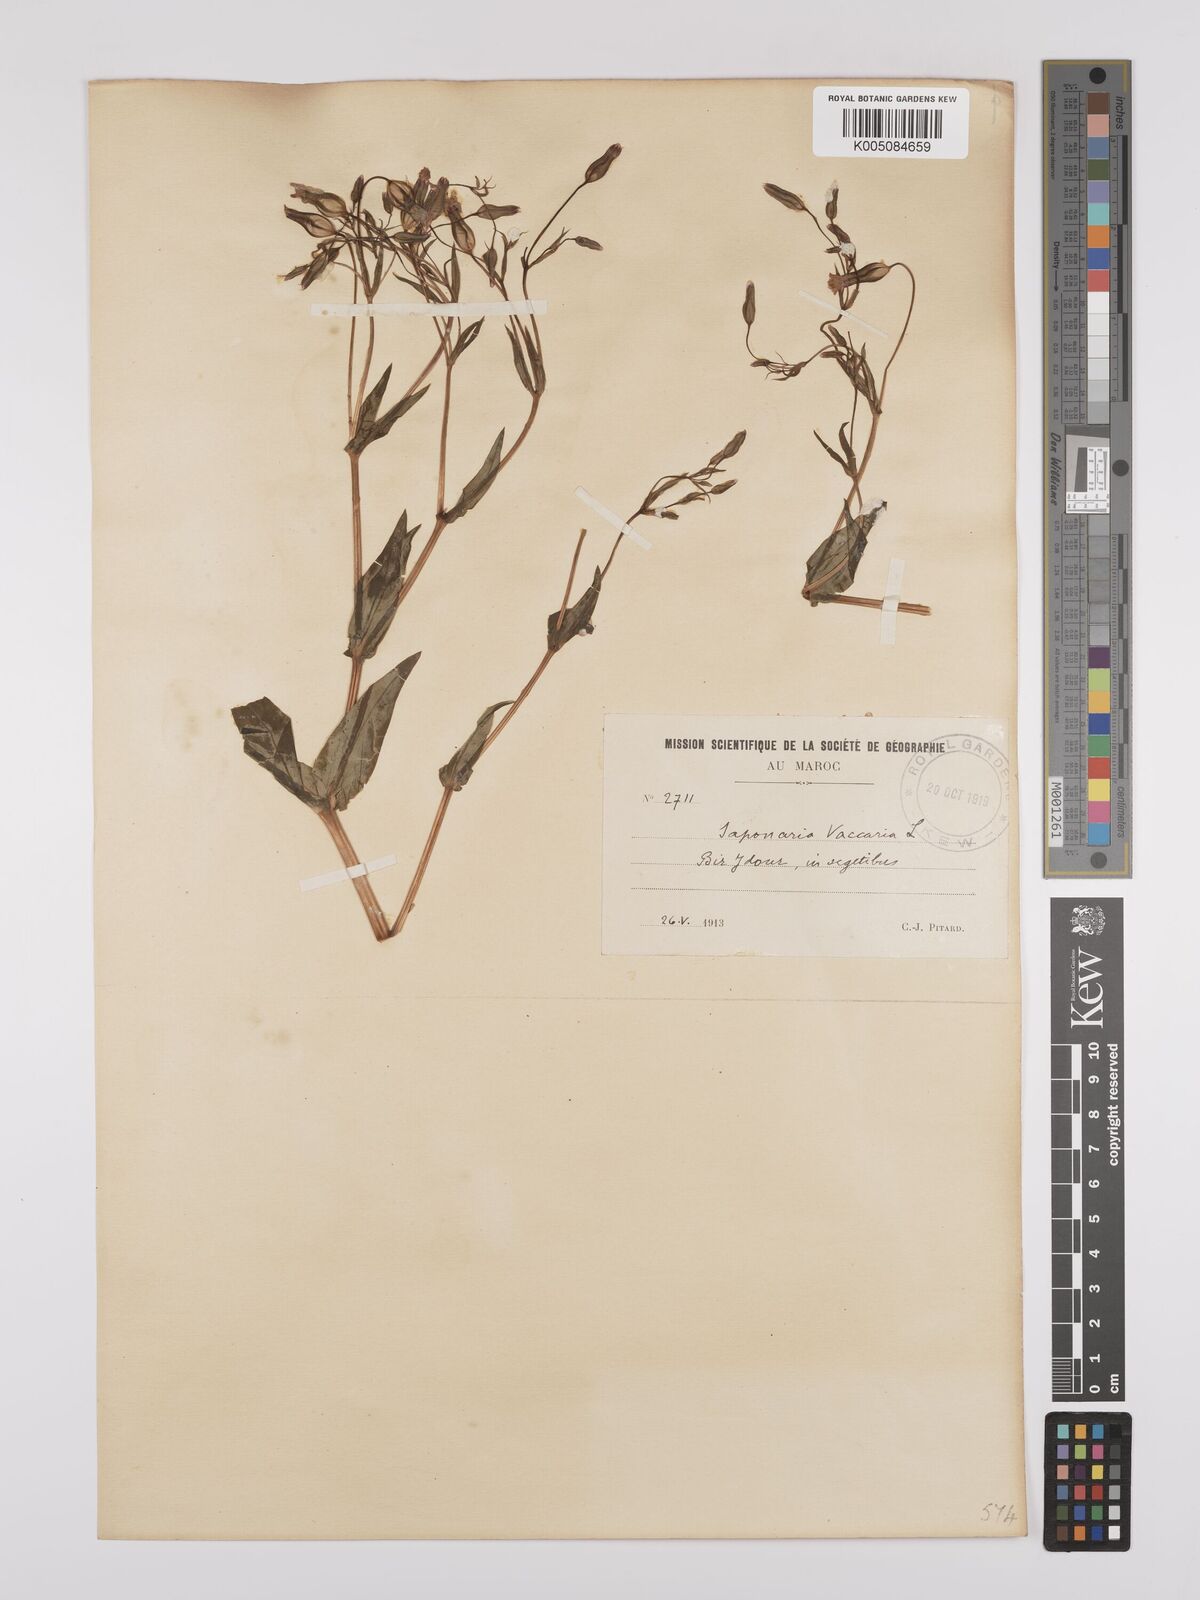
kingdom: Plantae
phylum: Tracheophyta
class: Magnoliopsida
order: Caryophyllales
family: Caryophyllaceae
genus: Gypsophila
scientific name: Gypsophila vaccaria
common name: Cow soapwort
